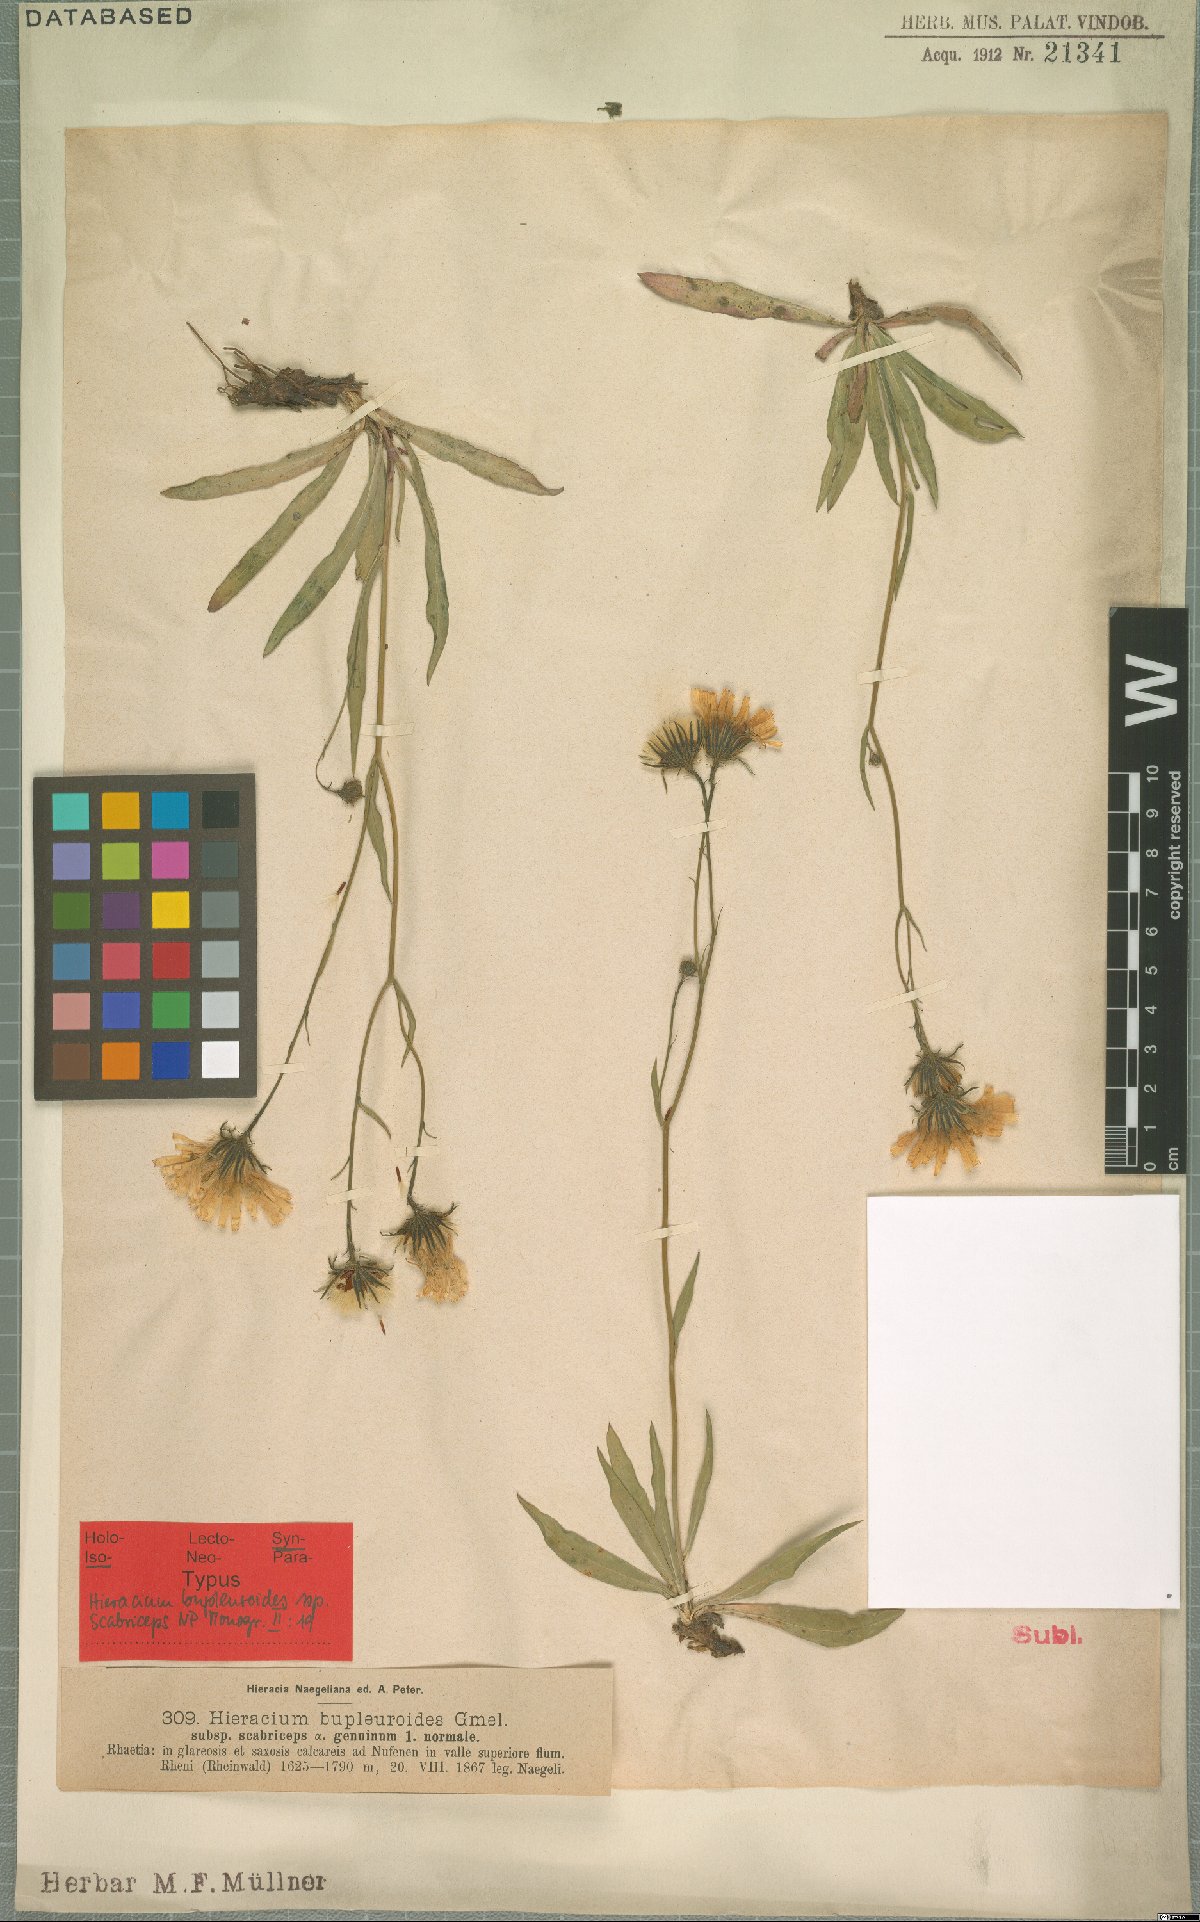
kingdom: Plantae
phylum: Tracheophyta
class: Magnoliopsida
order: Asterales
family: Asteraceae
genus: Hieracium
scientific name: Hieracium bupleuroides
